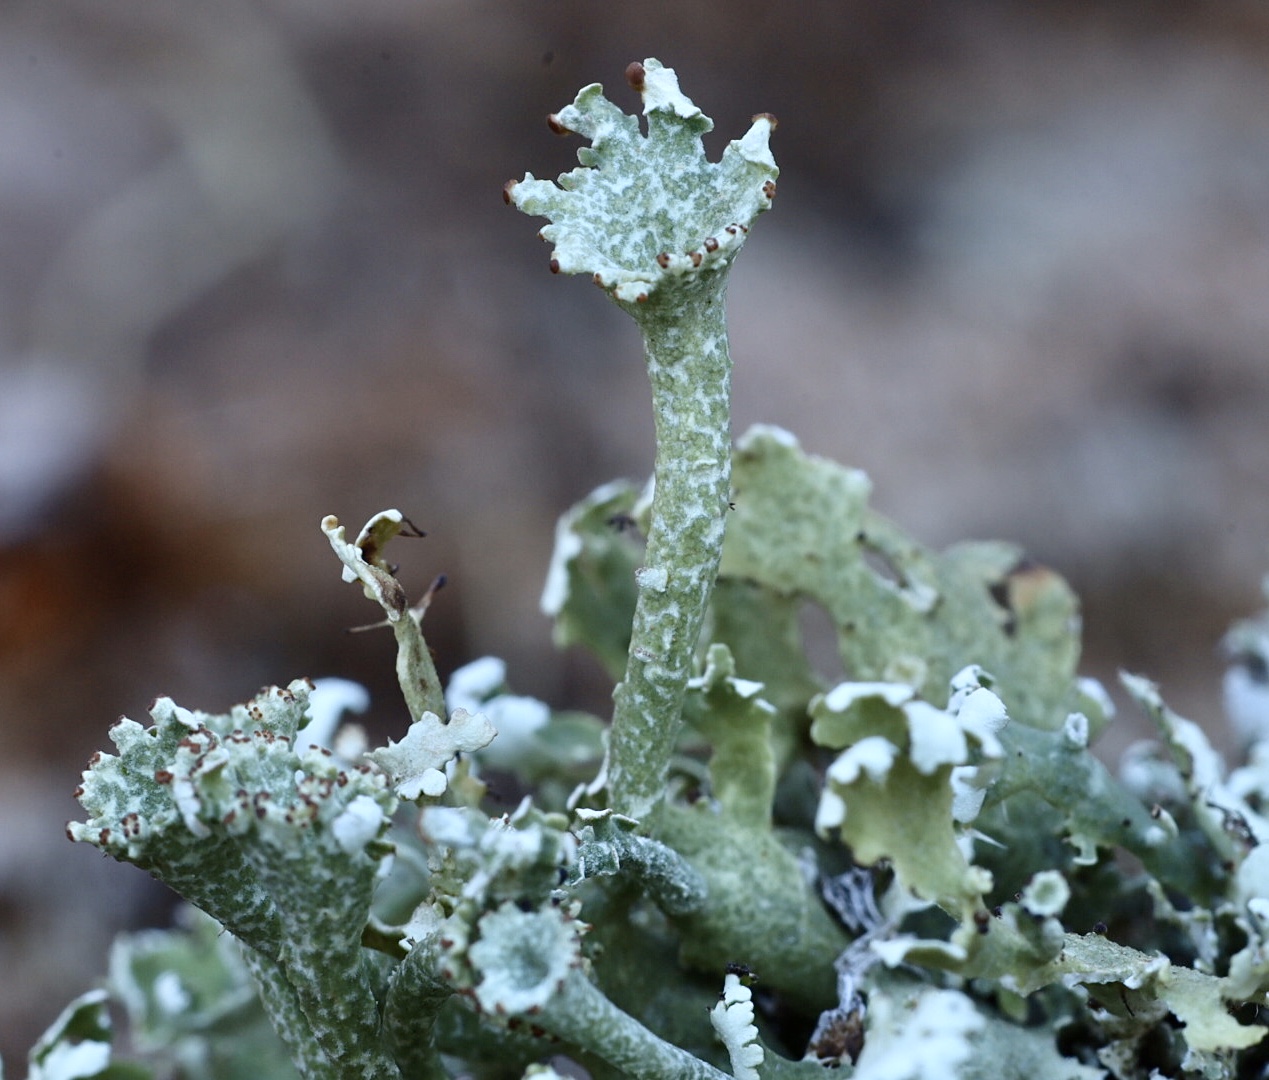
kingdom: Fungi
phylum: Ascomycota
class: Lecanoromycetes
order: Lecanorales
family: Cladoniaceae
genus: Cladonia
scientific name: Cladonia foliacea
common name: fliget bægerlav
